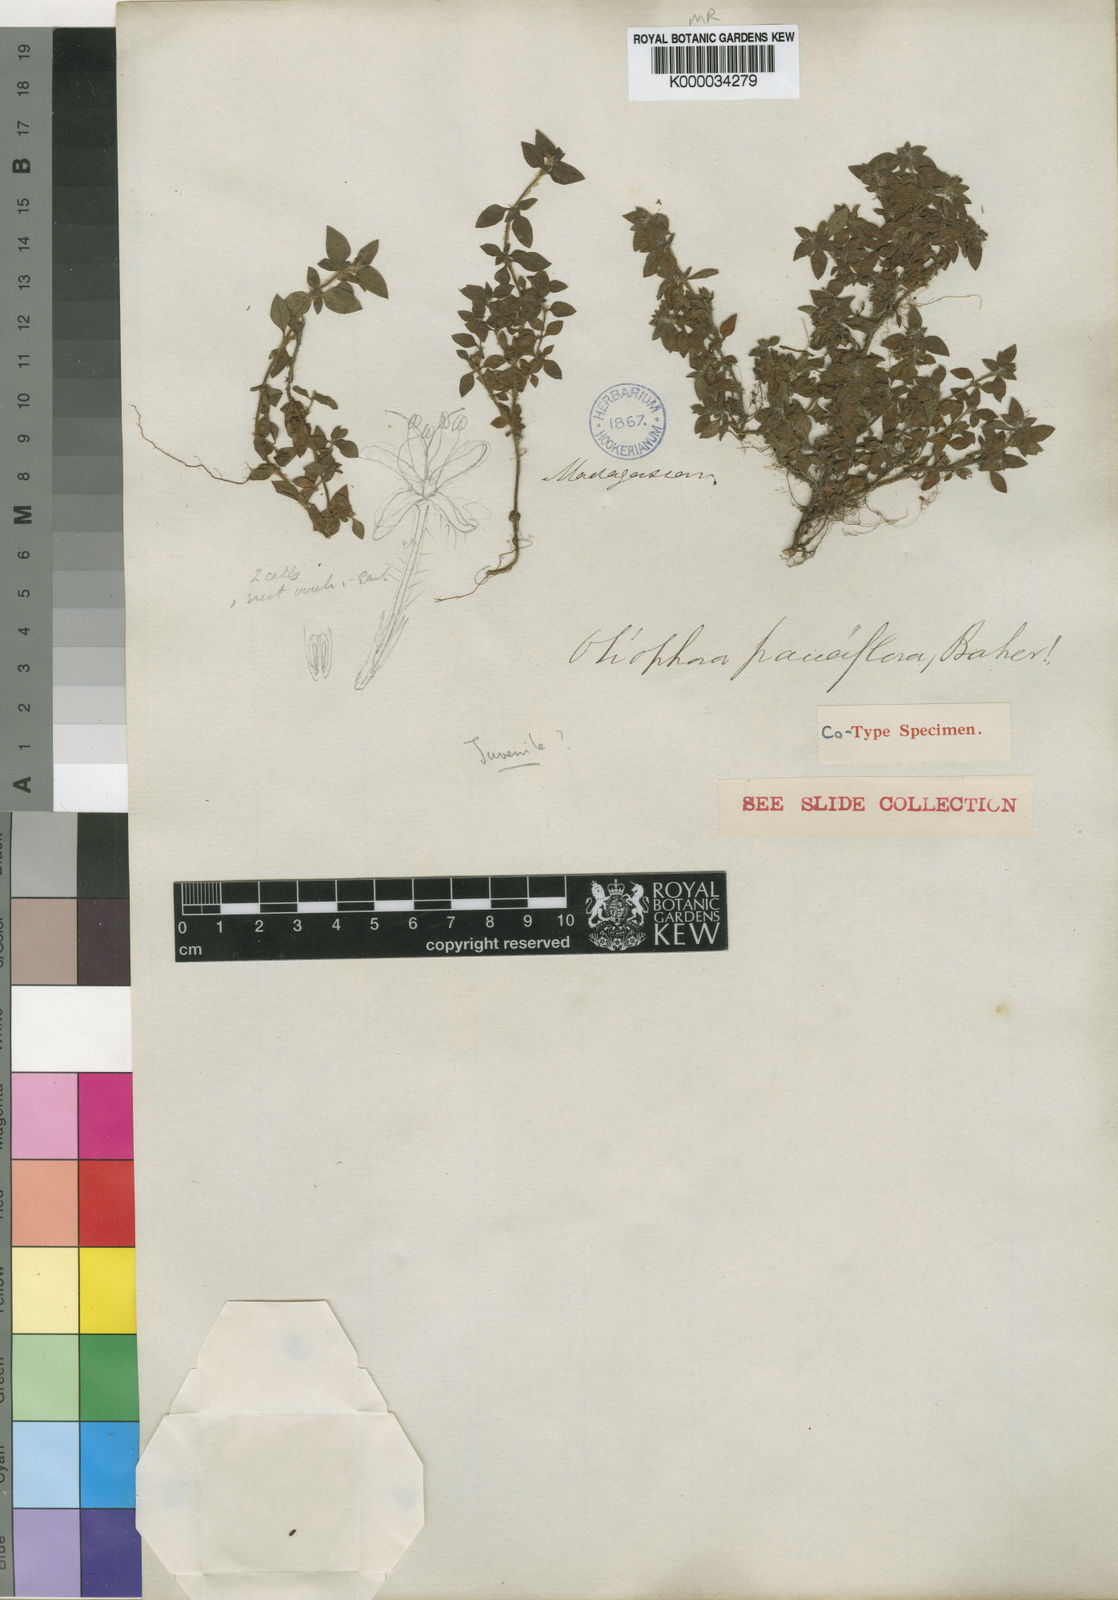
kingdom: Plantae
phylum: Tracheophyta
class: Magnoliopsida
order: Gentianales
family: Rubiaceae
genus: Otiophora
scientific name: Otiophora pauciflora
